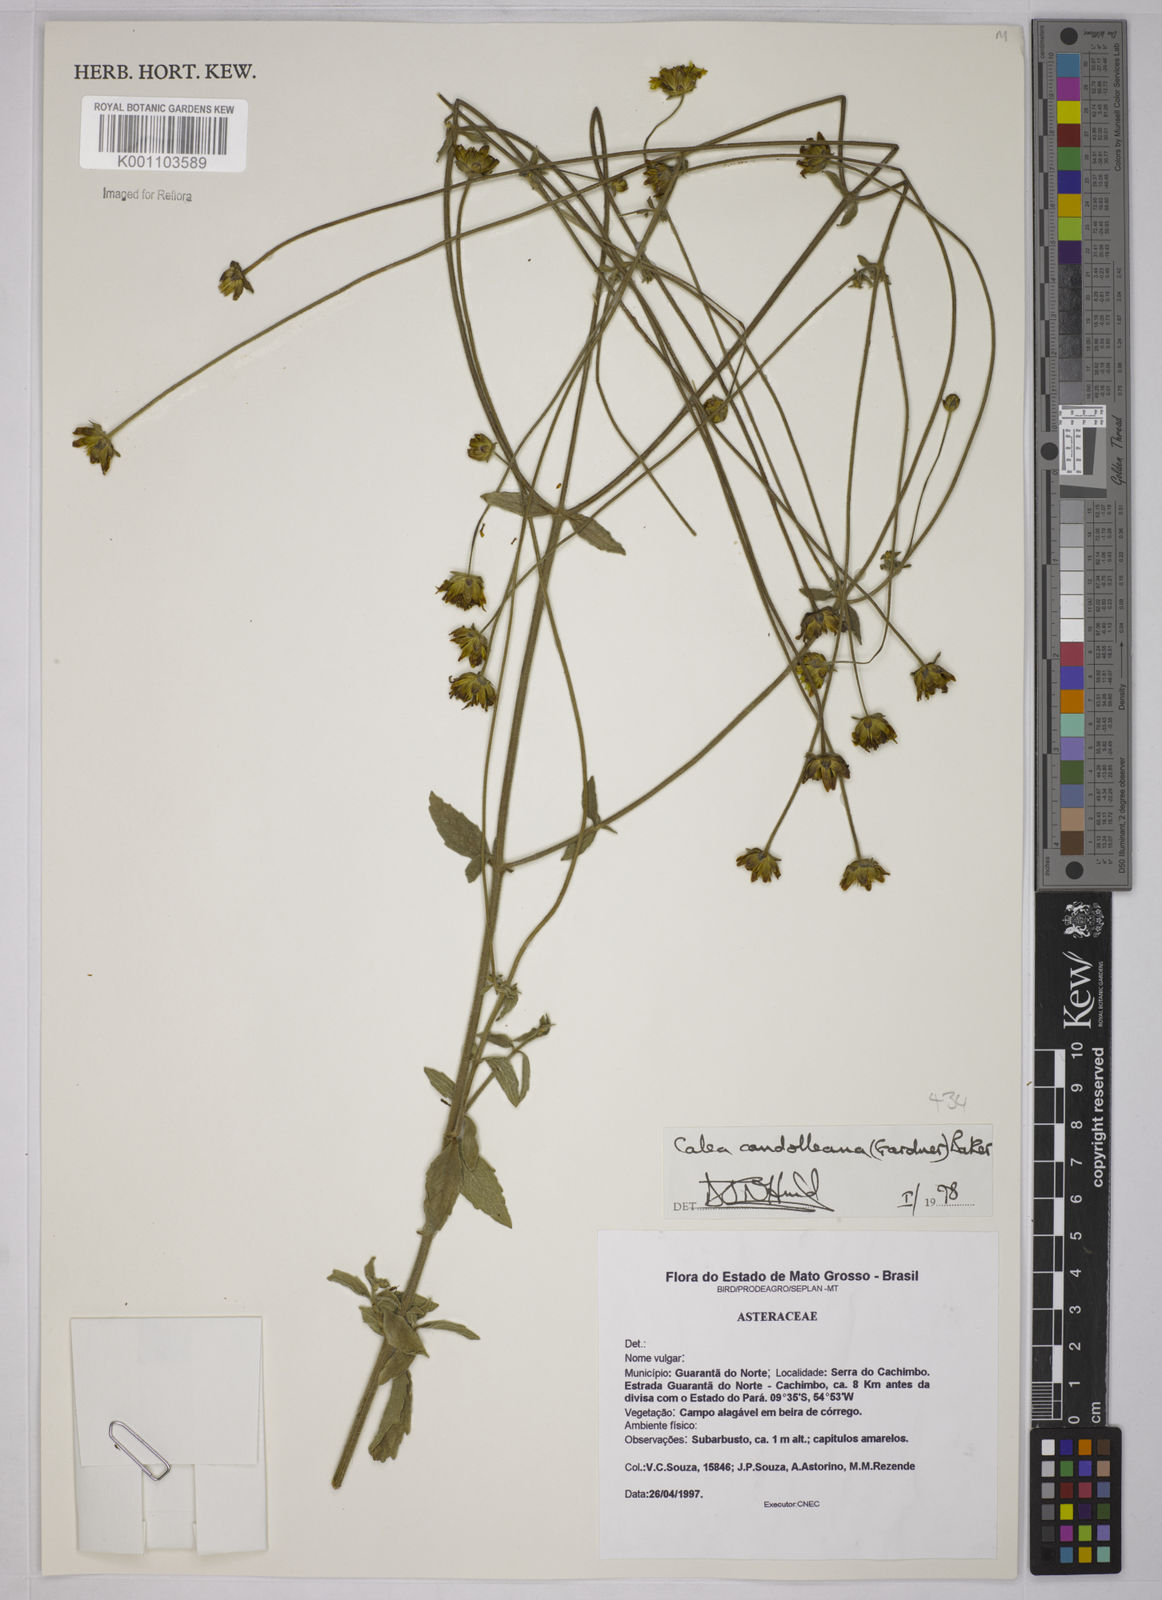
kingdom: Plantae
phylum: Tracheophyta
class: Magnoliopsida
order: Asterales
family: Asteraceae
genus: Calea
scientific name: Calea candolleana
